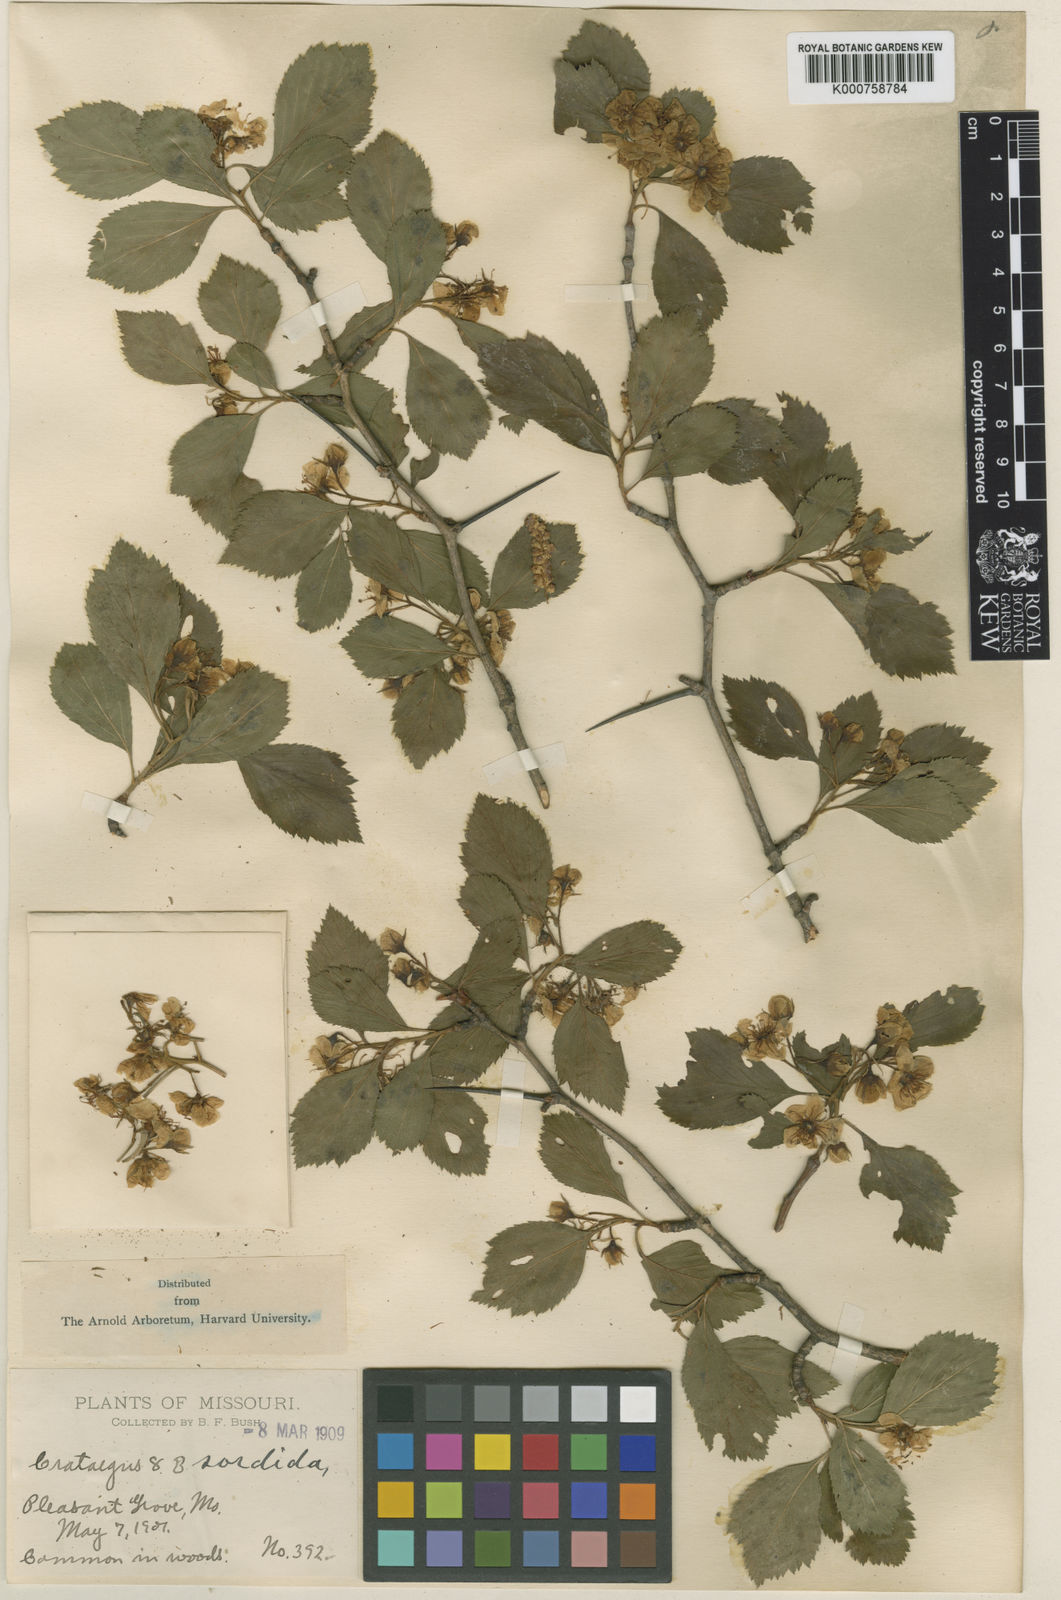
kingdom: Plantae
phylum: Tracheophyta
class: Magnoliopsida
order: Rosales
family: Rosaceae
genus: Crataegus
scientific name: Crataegus collina
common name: Hillside hawthorn
